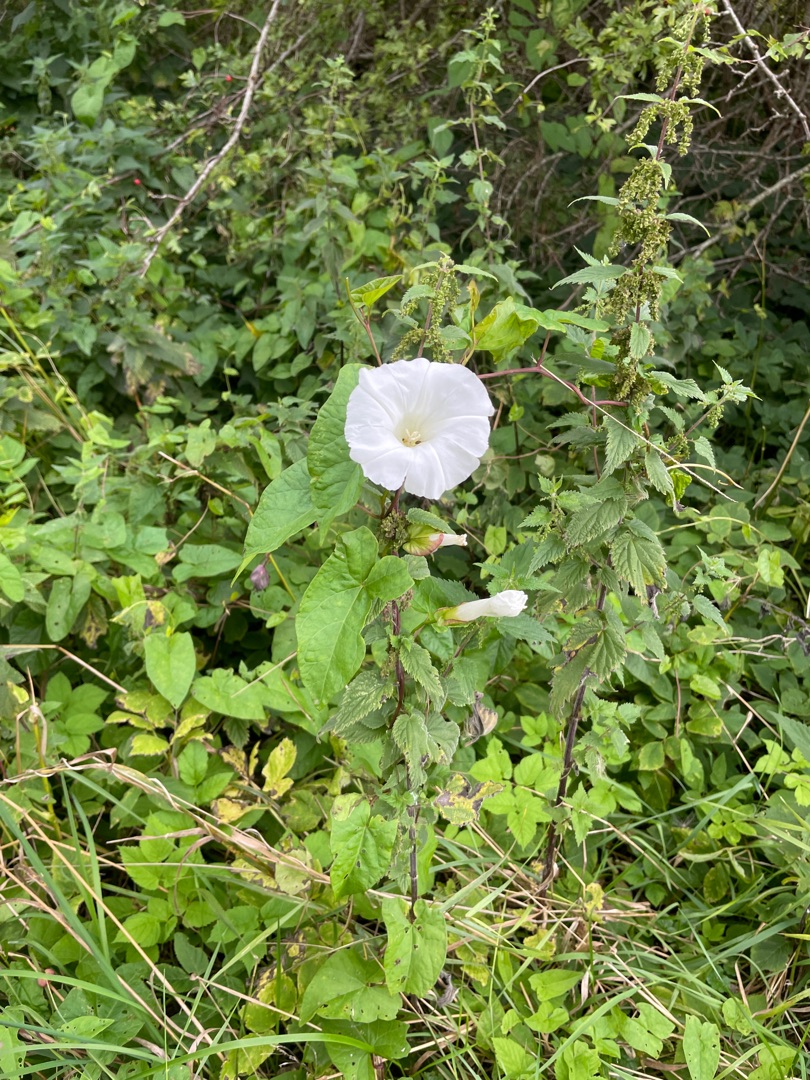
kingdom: Plantae
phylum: Tracheophyta
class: Magnoliopsida
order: Solanales
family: Convolvulaceae
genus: Calystegia
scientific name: Calystegia sepium
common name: Gærde-snerle
